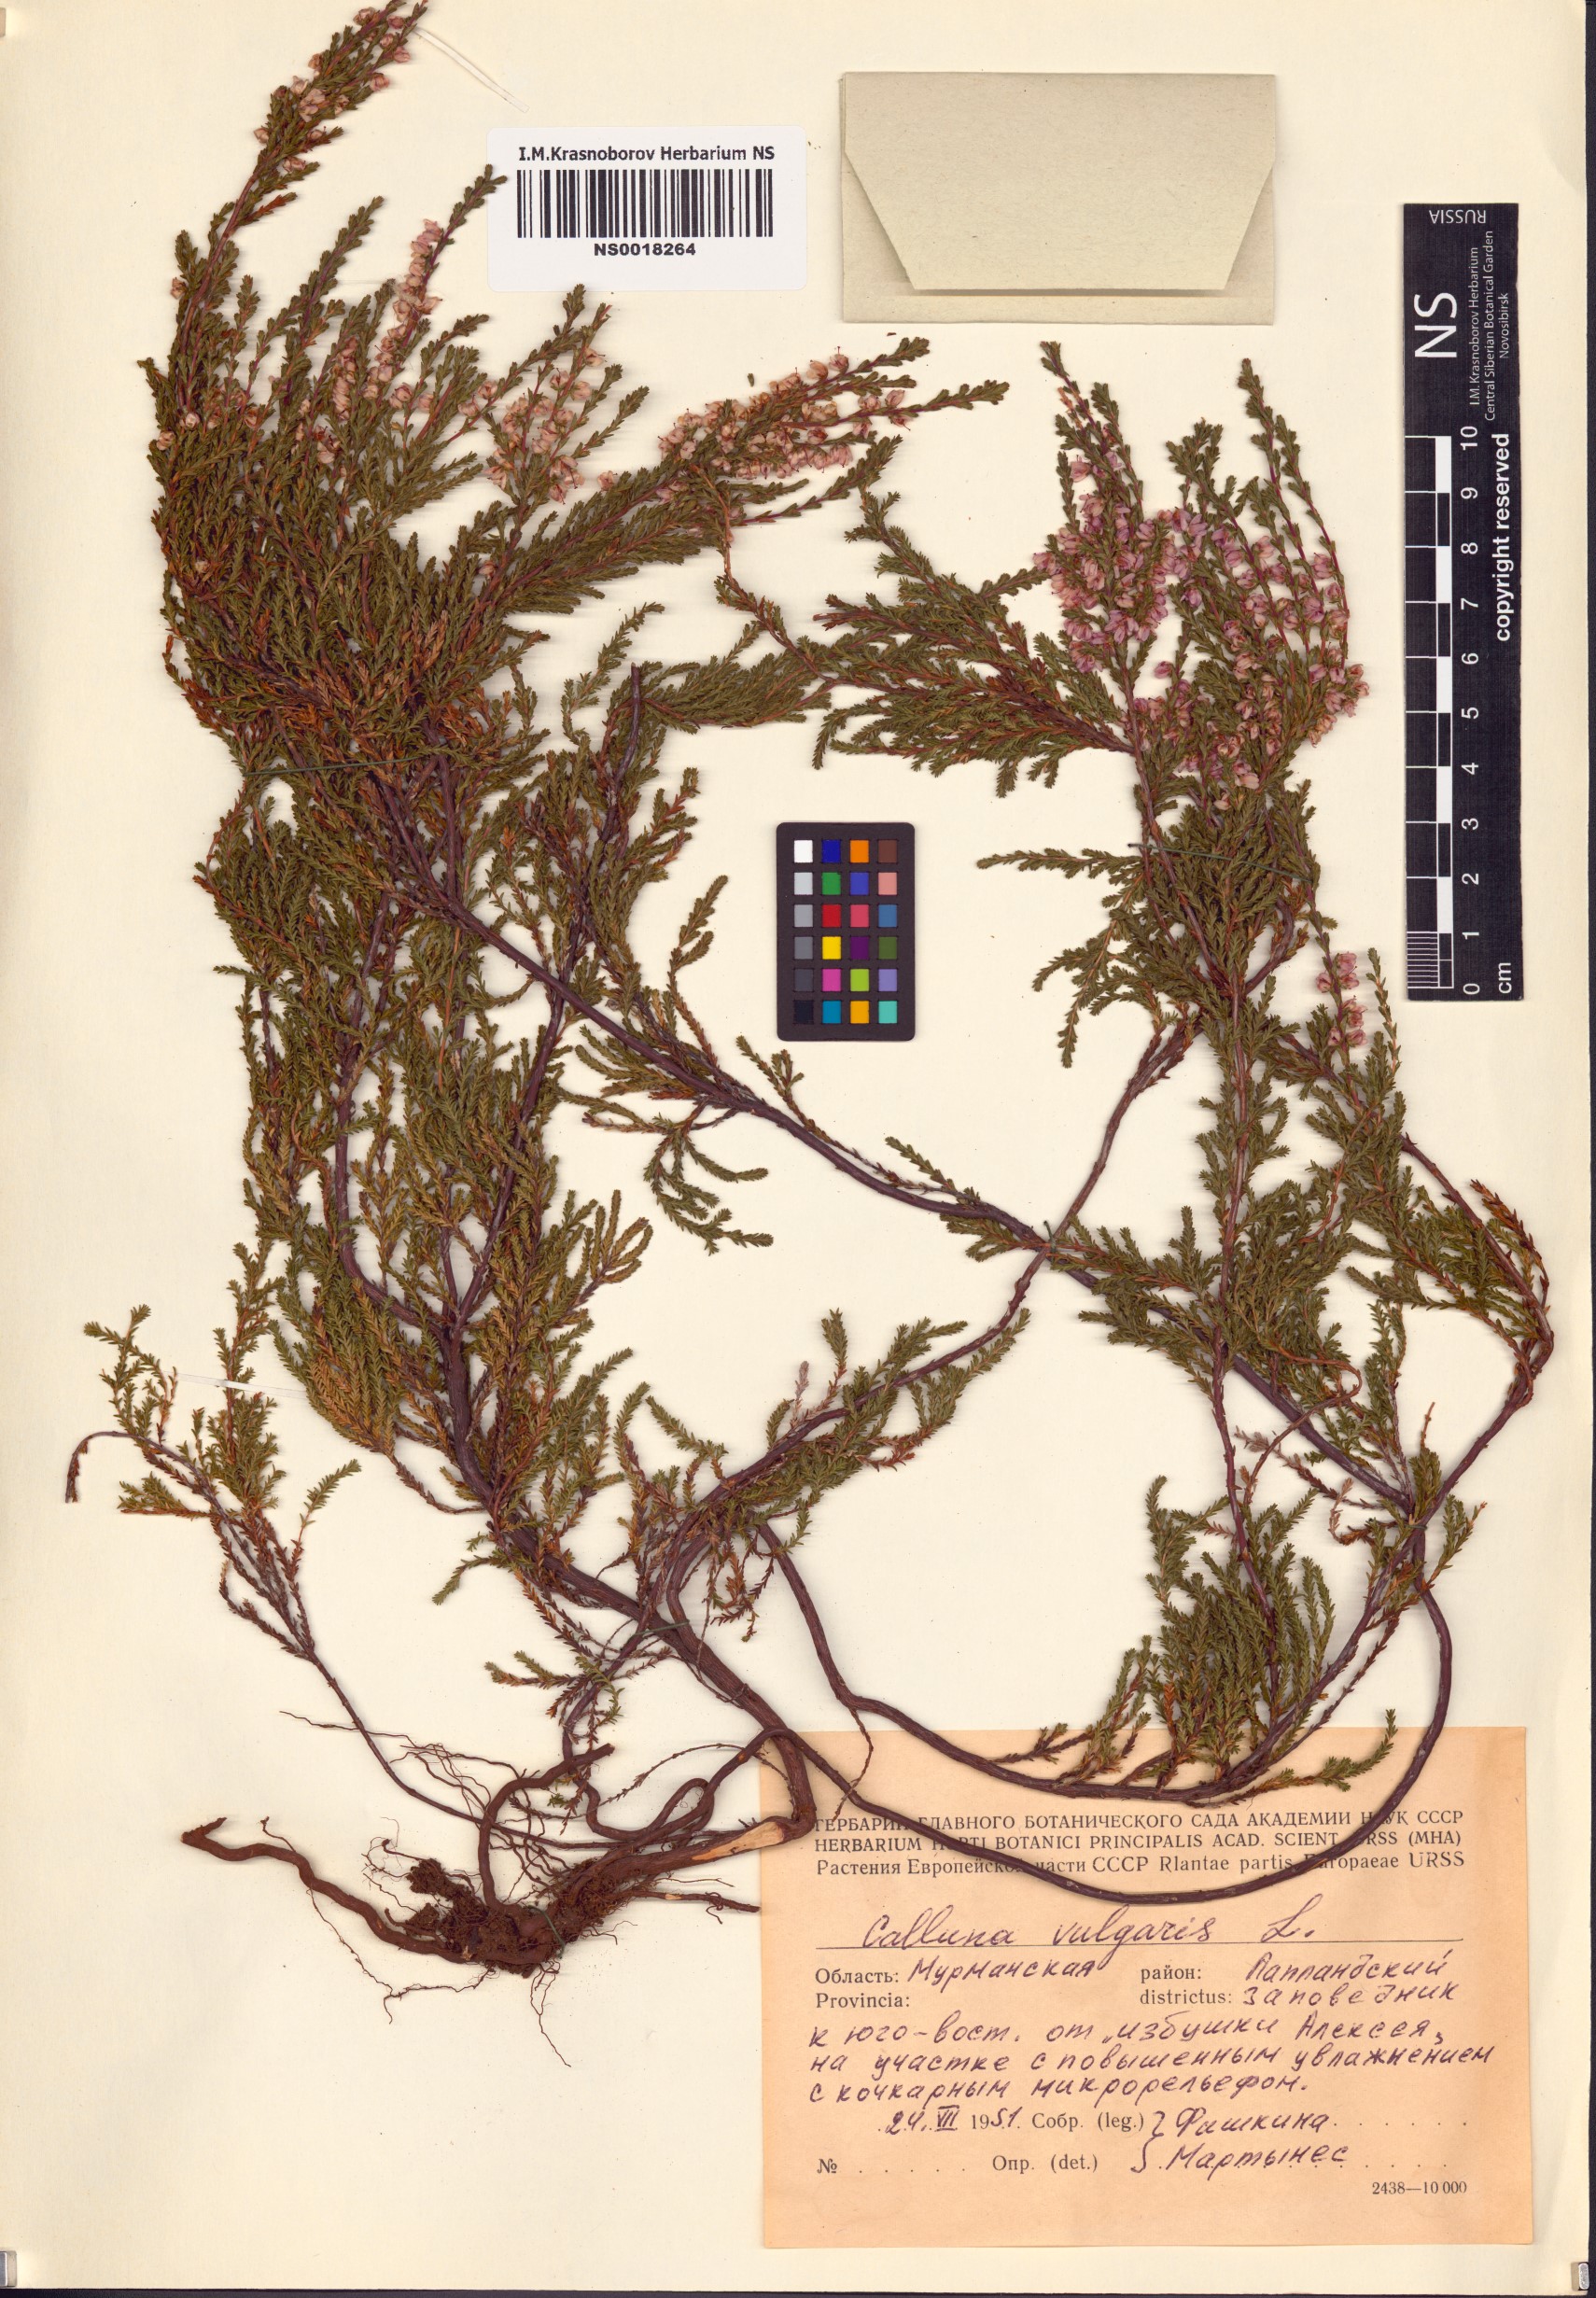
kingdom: Plantae
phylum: Tracheophyta
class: Magnoliopsida
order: Ericales
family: Ericaceae
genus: Calluna
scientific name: Calluna vulgaris
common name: Heather
